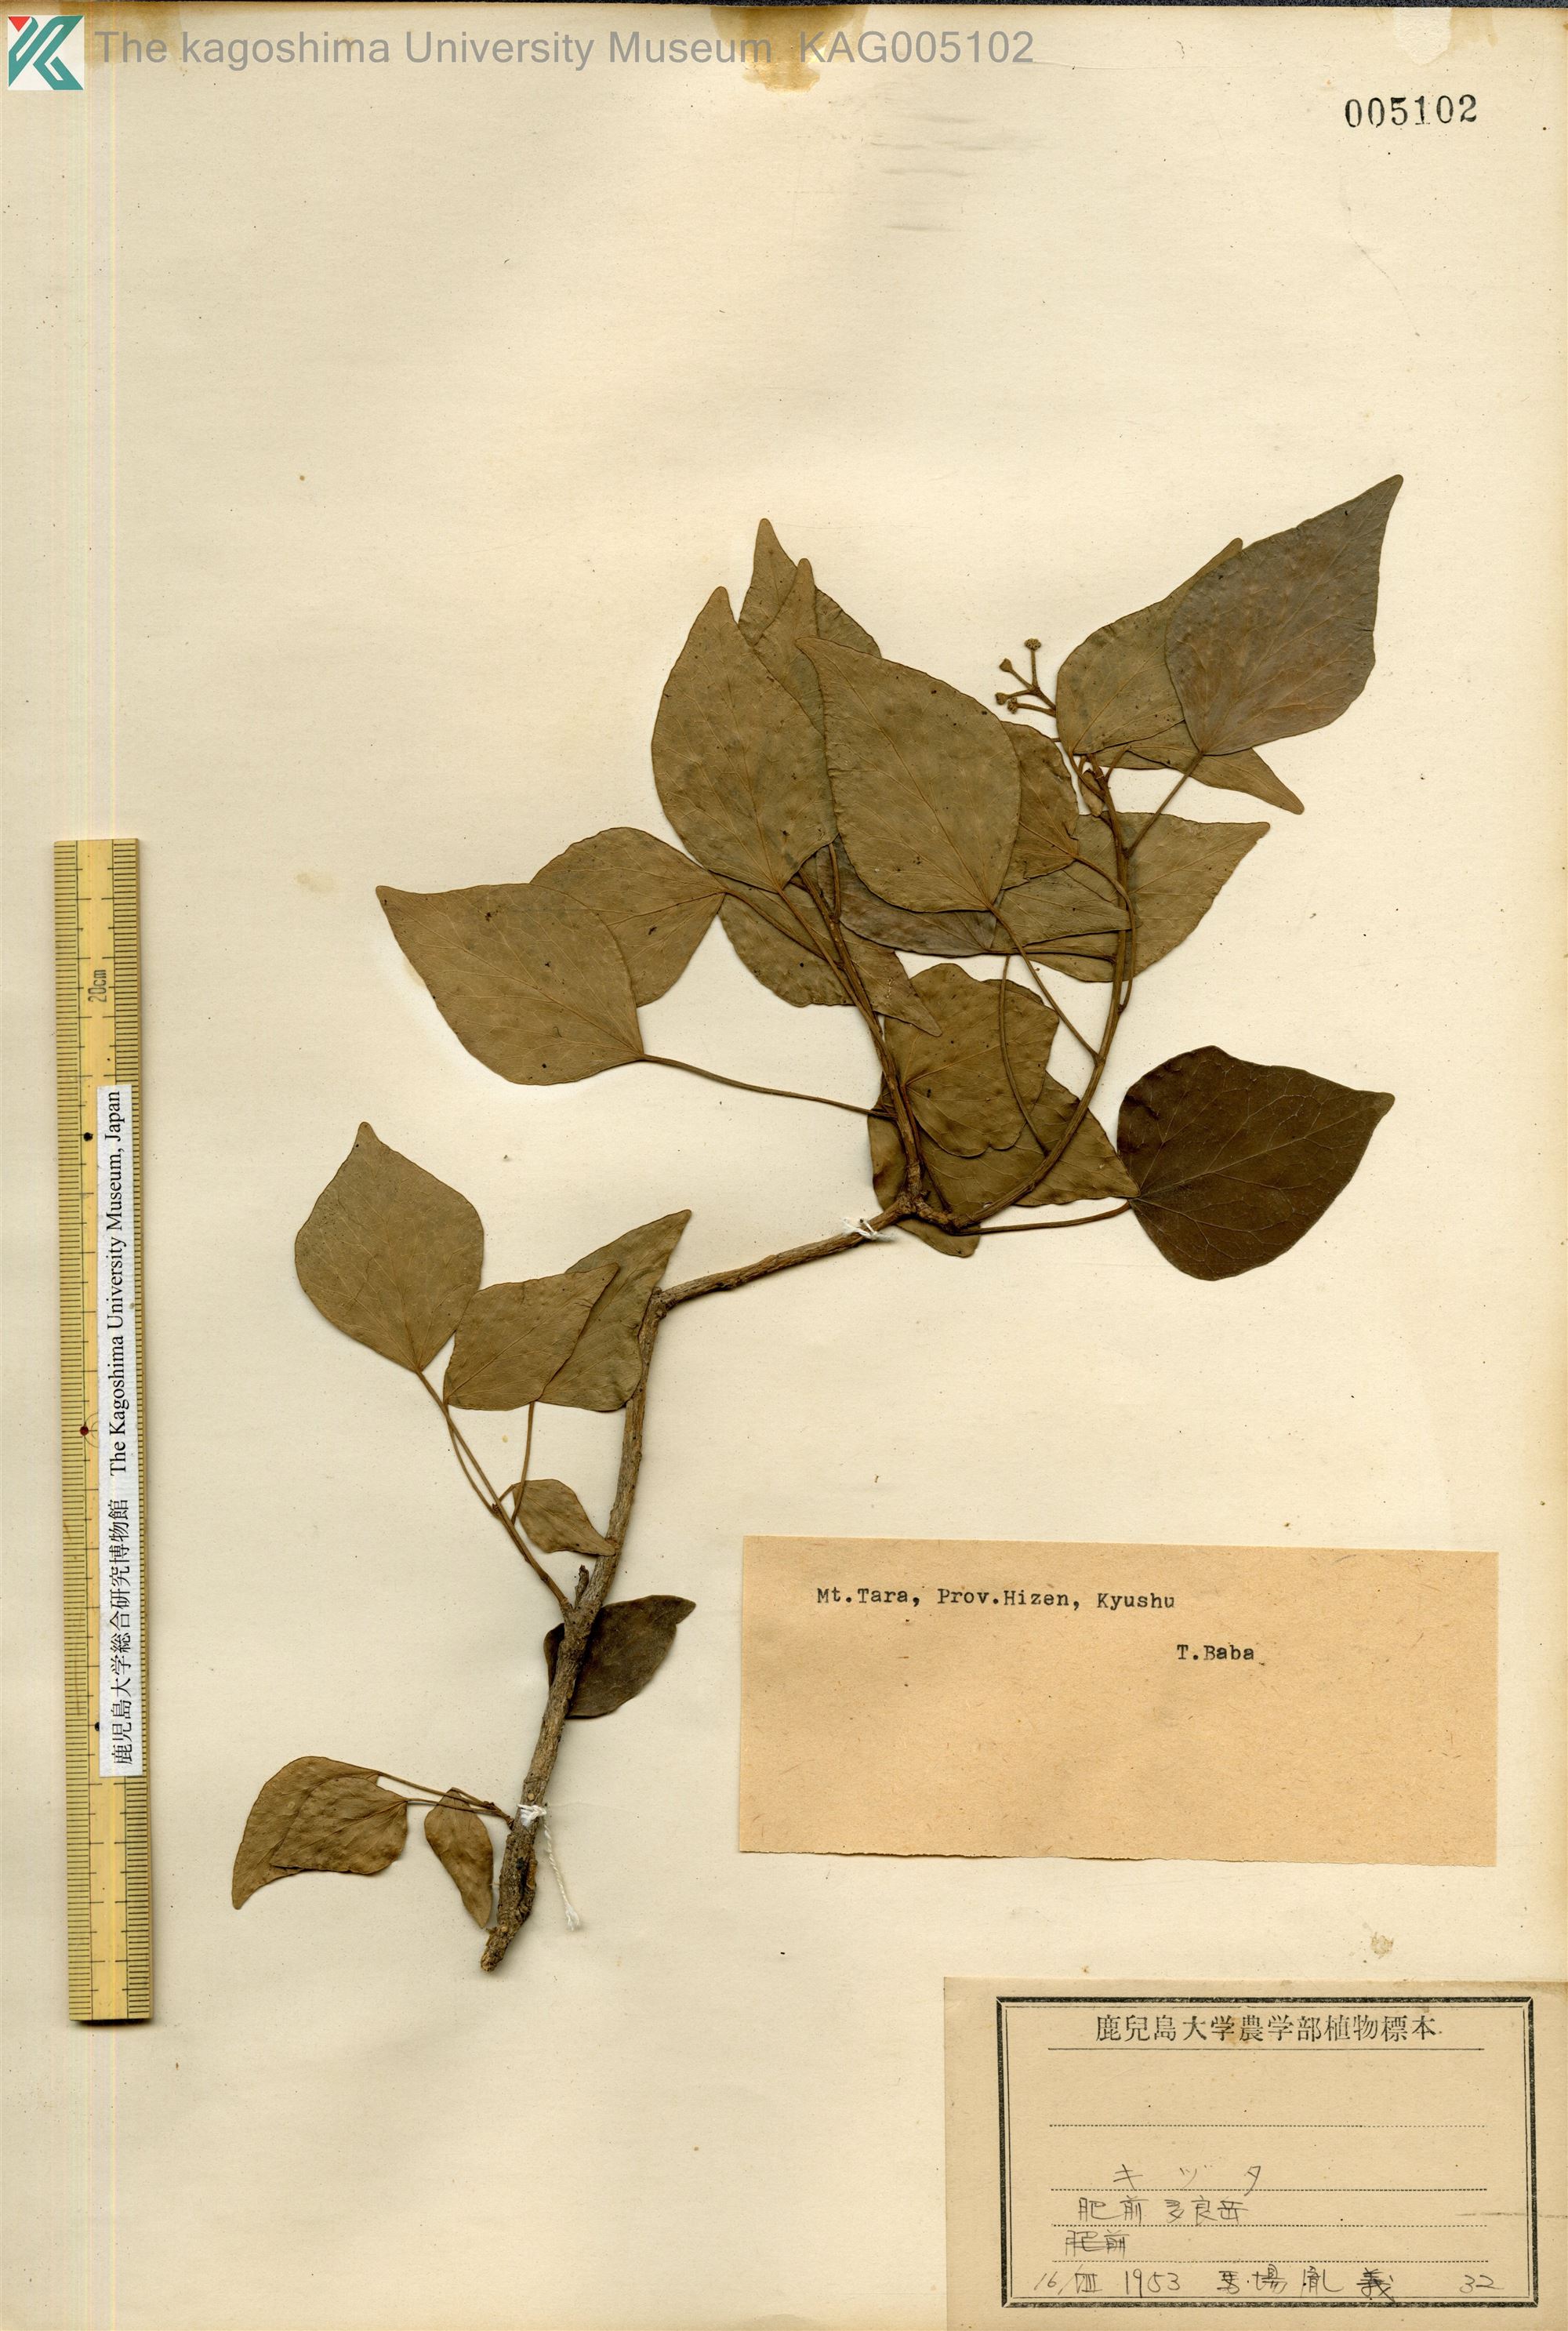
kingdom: Plantae
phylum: Tracheophyta
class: Magnoliopsida
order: Apiales
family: Araliaceae
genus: Hedera
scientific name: Hedera rhombea
